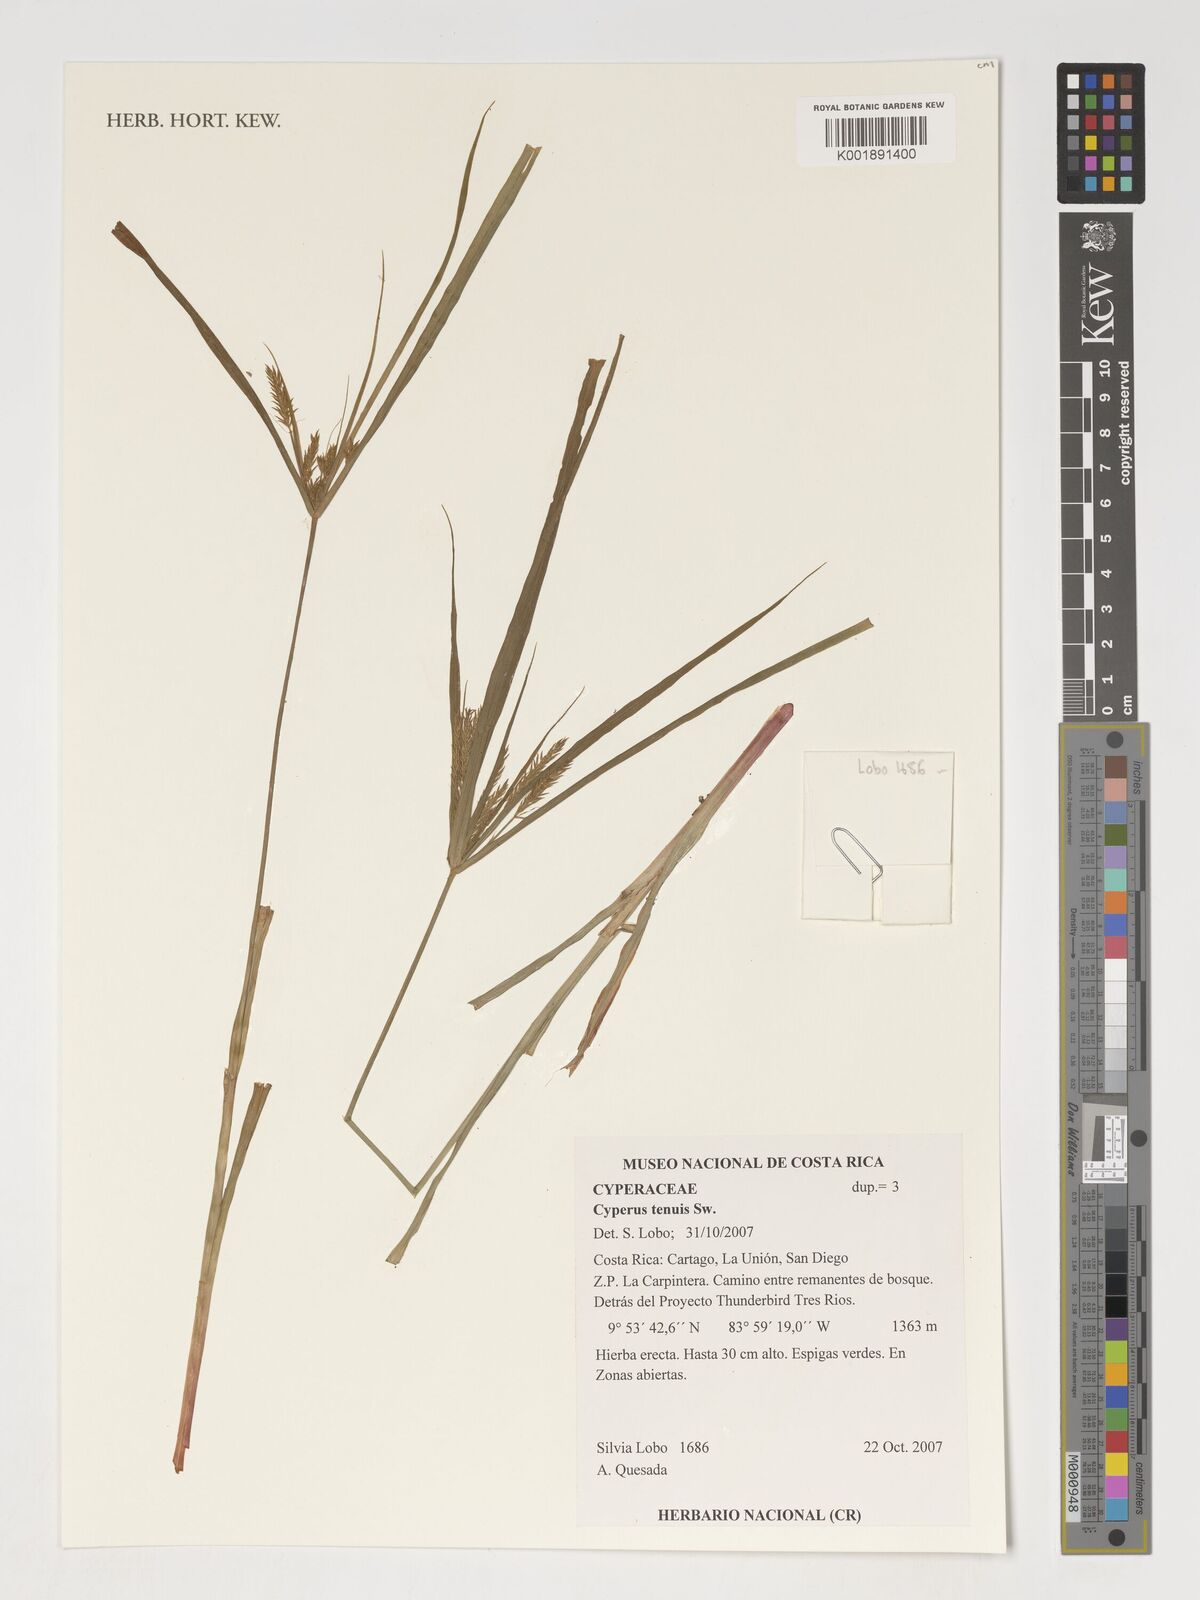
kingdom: Plantae
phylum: Tracheophyta
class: Liliopsida
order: Poales
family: Cyperaceae
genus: Cyperus
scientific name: Cyperus tenuis
